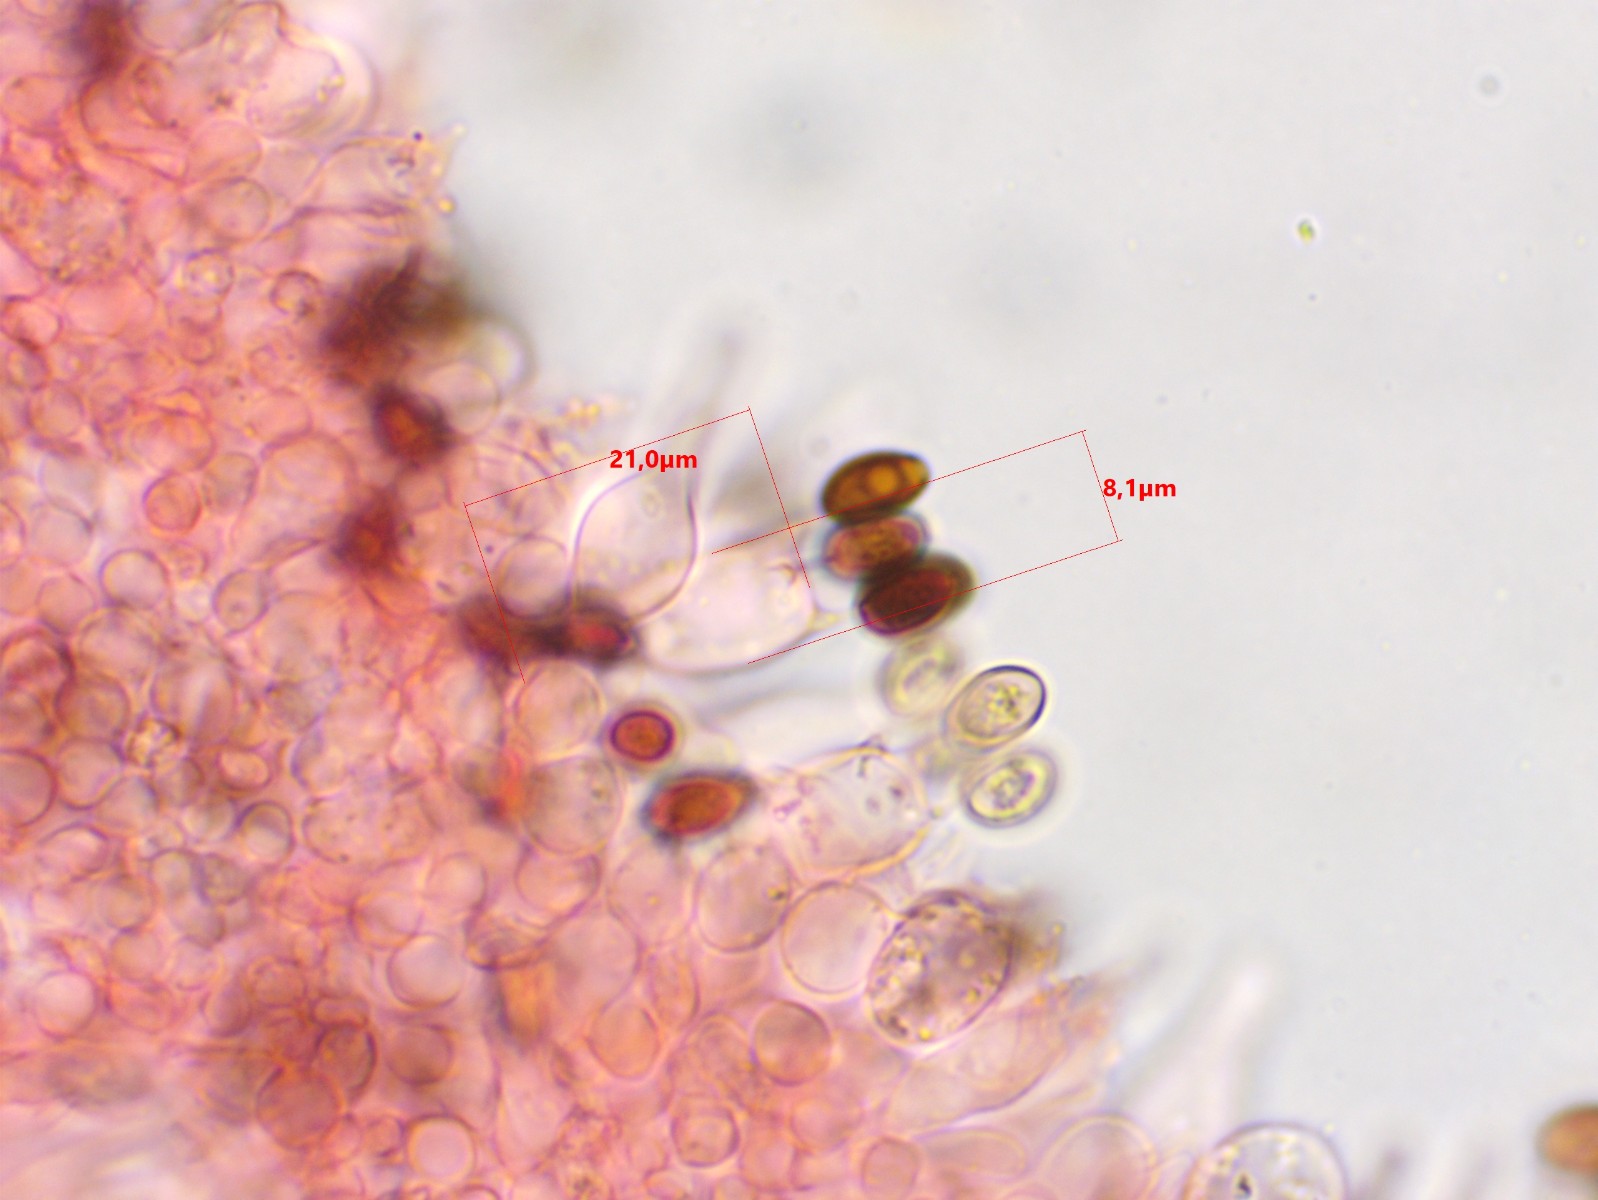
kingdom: Fungi
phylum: Basidiomycota
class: Agaricomycetes
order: Agaricales
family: Psathyrellaceae
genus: Psathyrella
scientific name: Psathyrella fimiseda
